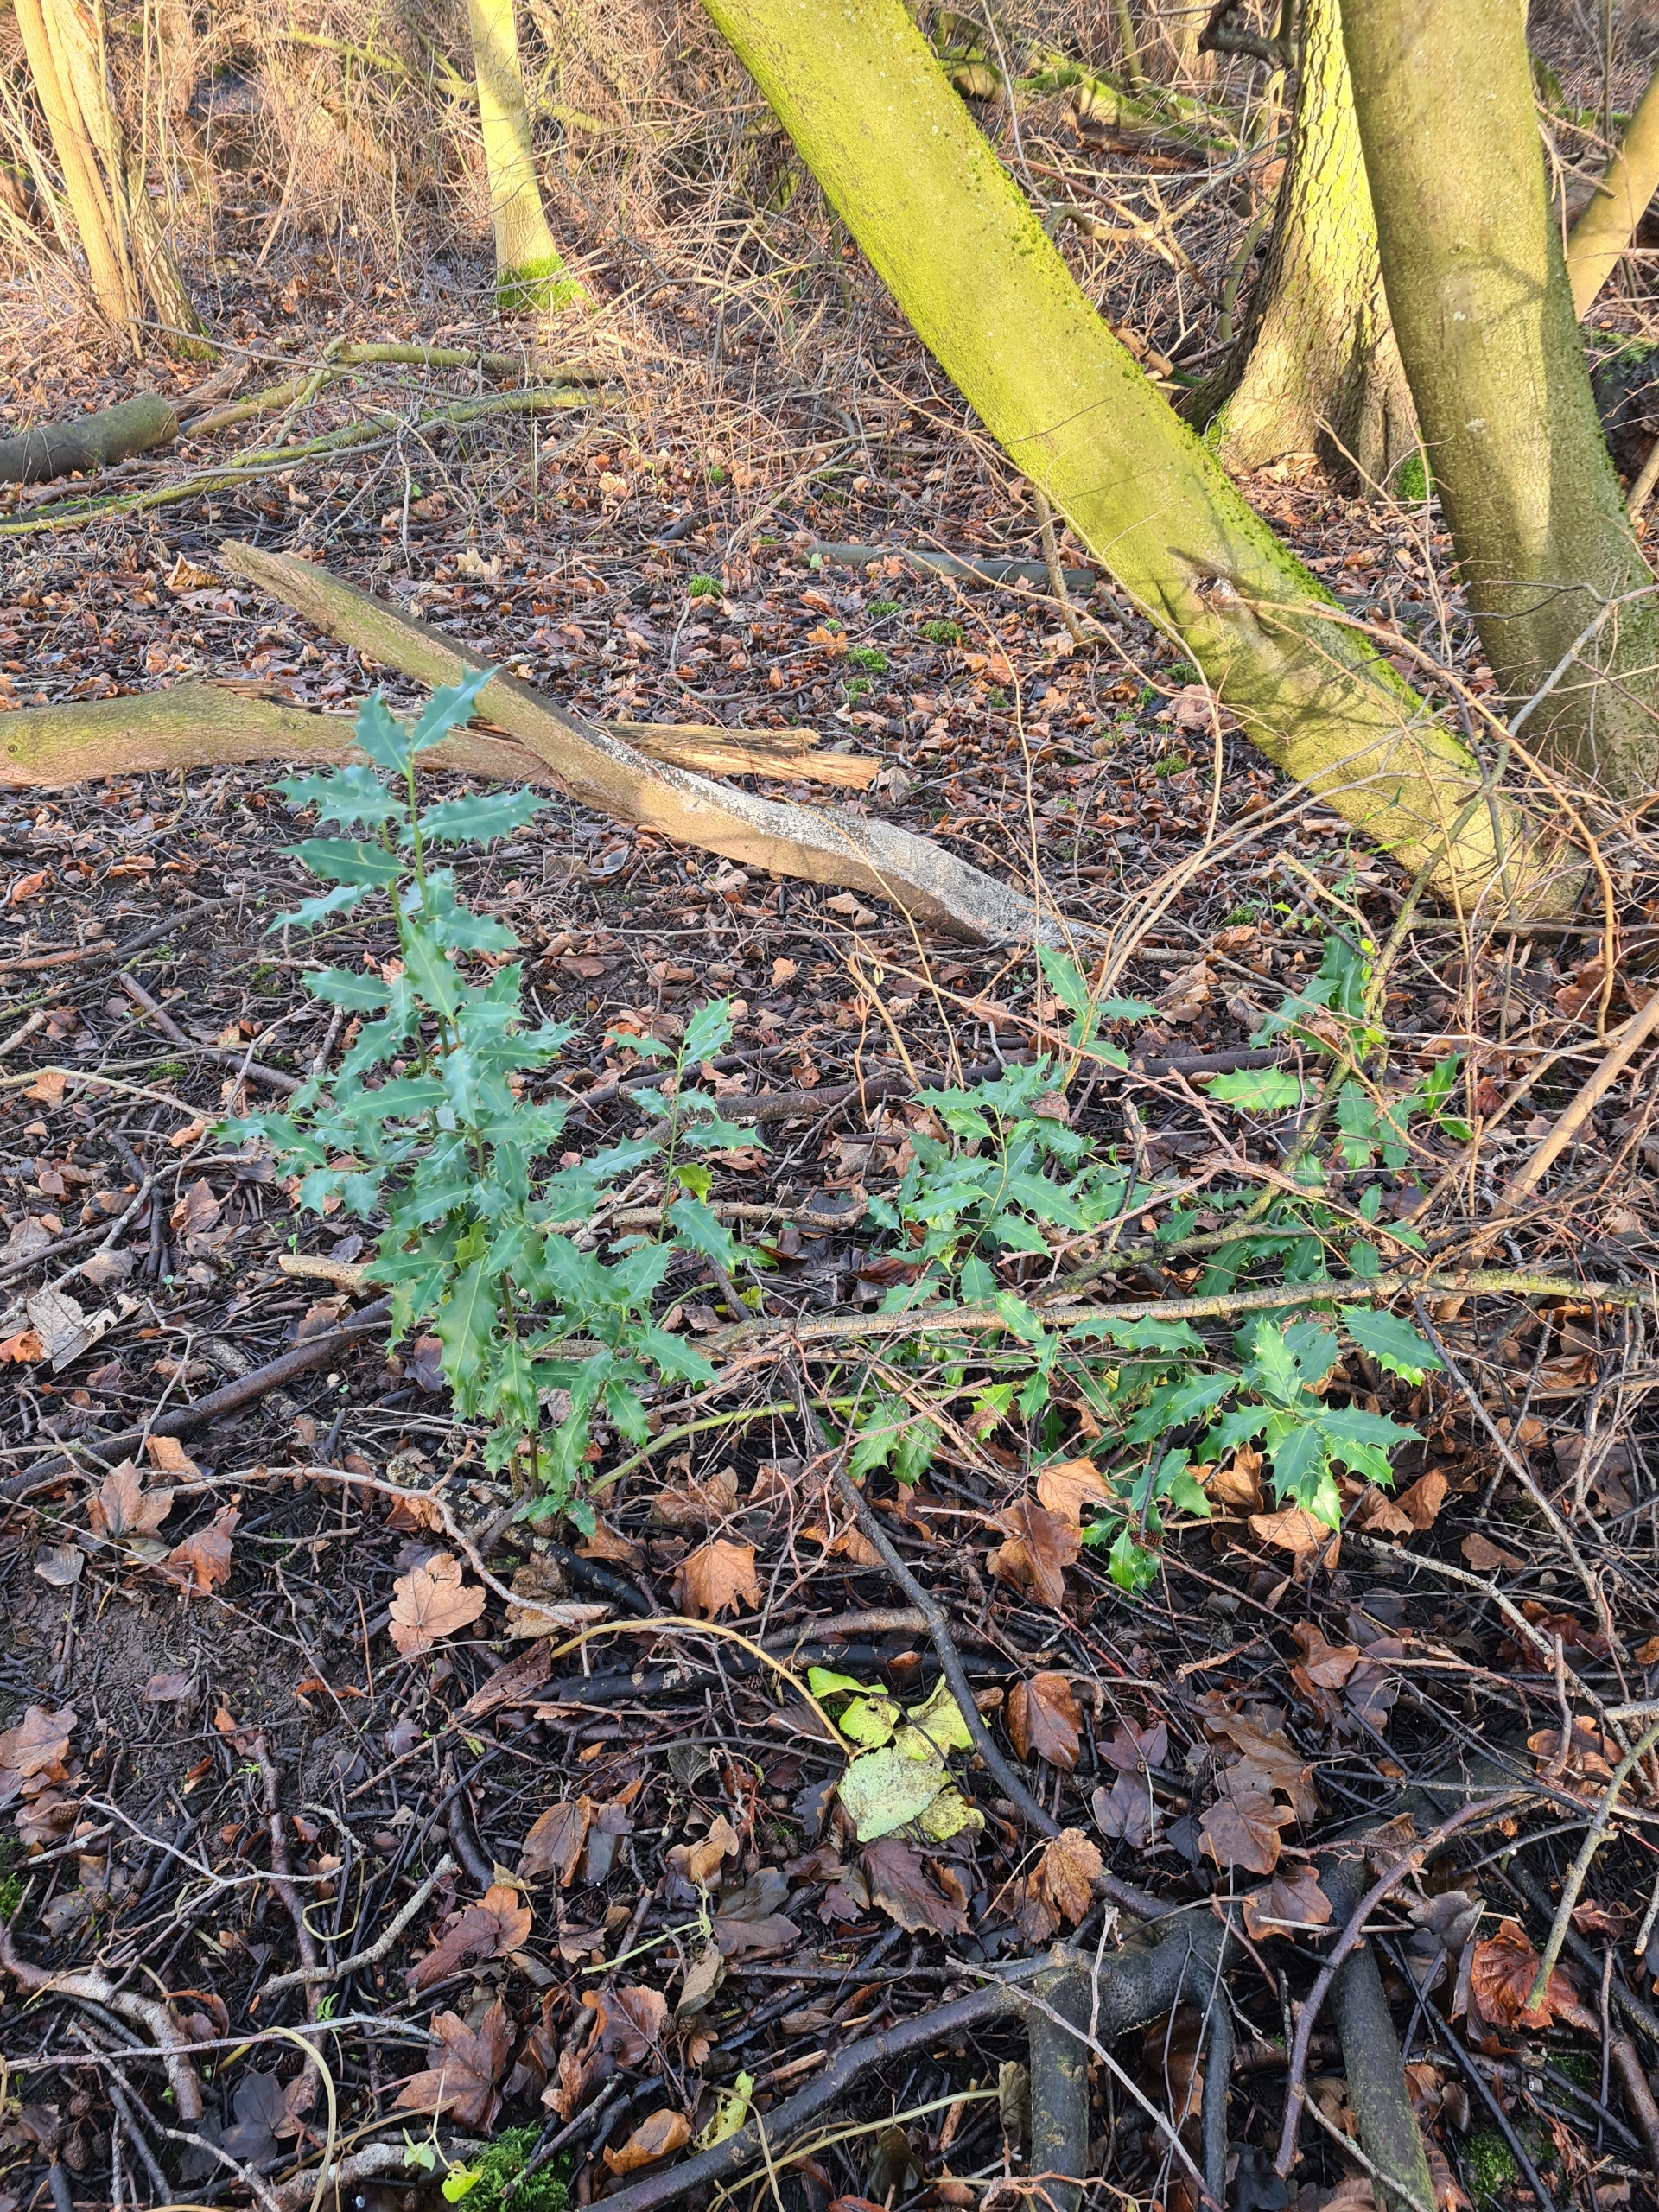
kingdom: Plantae
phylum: Tracheophyta
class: Magnoliopsida
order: Aquifoliales
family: Aquifoliaceae
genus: Ilex
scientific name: Ilex aquifolium
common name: Kristtorn
